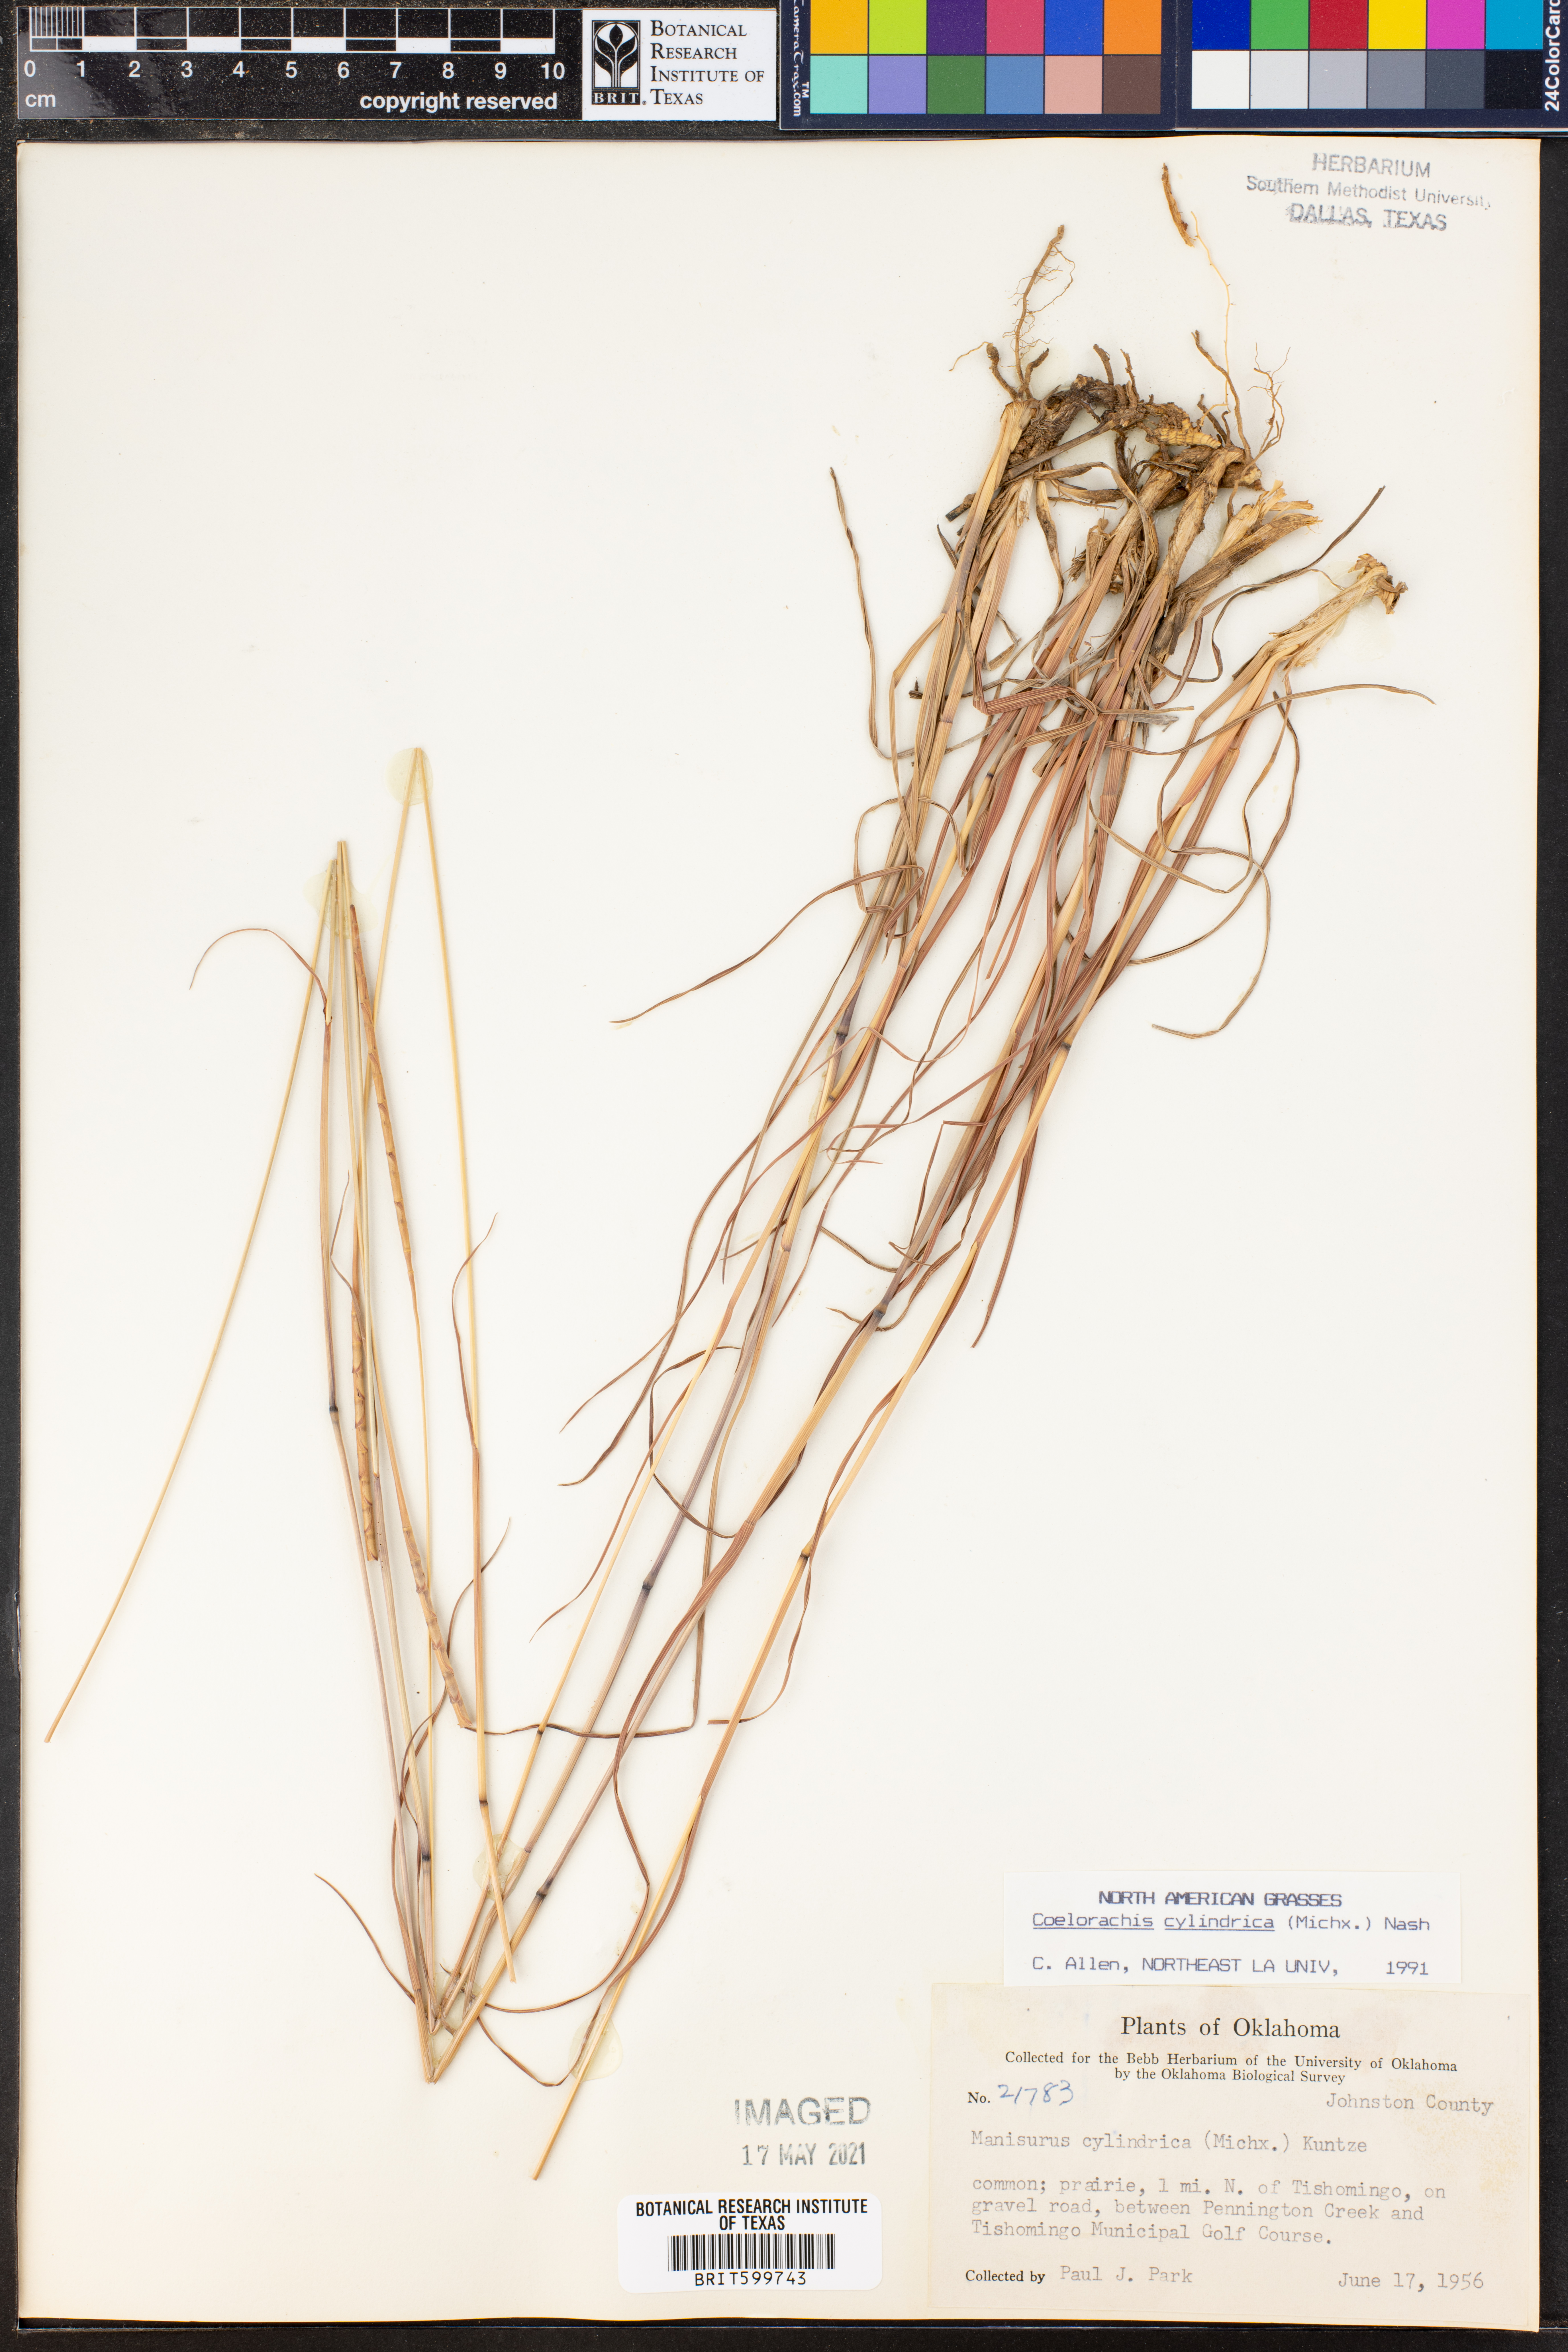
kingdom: Plantae
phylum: Tracheophyta
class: Liliopsida
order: Poales
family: Poaceae
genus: Rottboellia
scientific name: Rottboellia campestris
